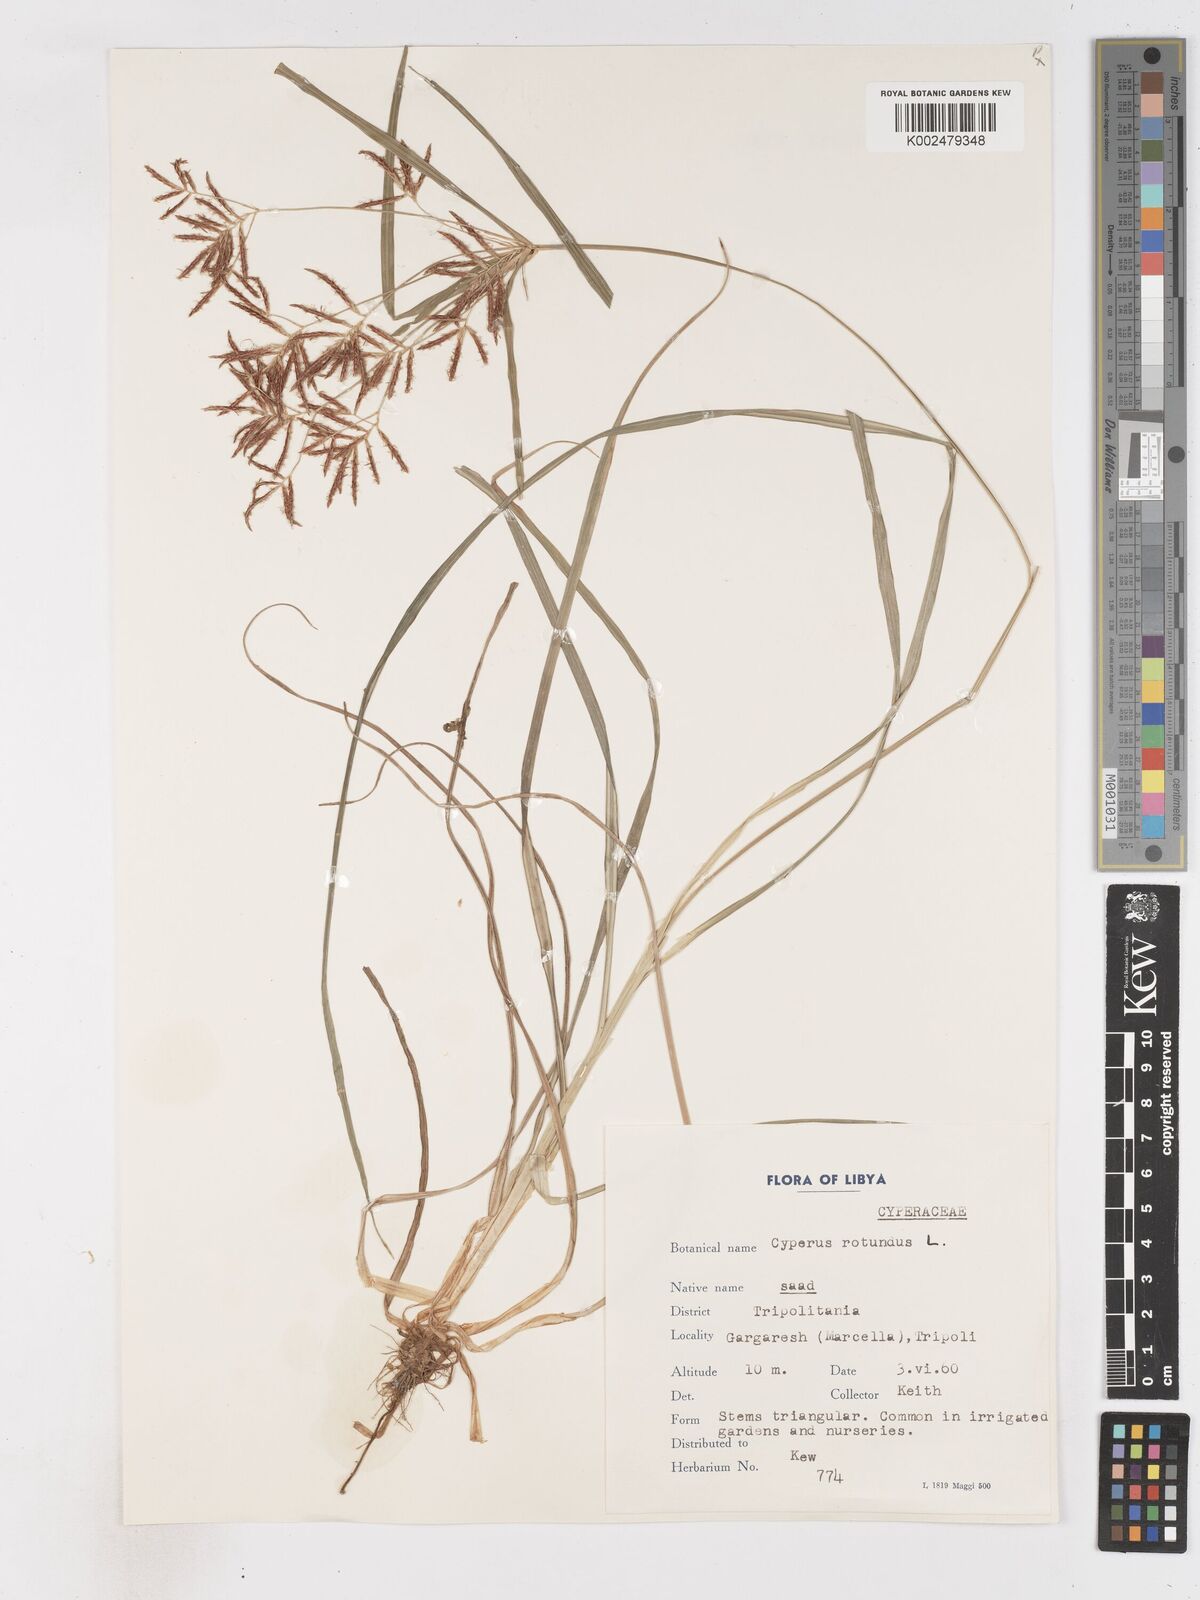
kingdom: Plantae
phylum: Tracheophyta
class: Liliopsida
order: Poales
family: Cyperaceae
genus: Cyperus
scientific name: Cyperus rotundus
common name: Nutgrass
